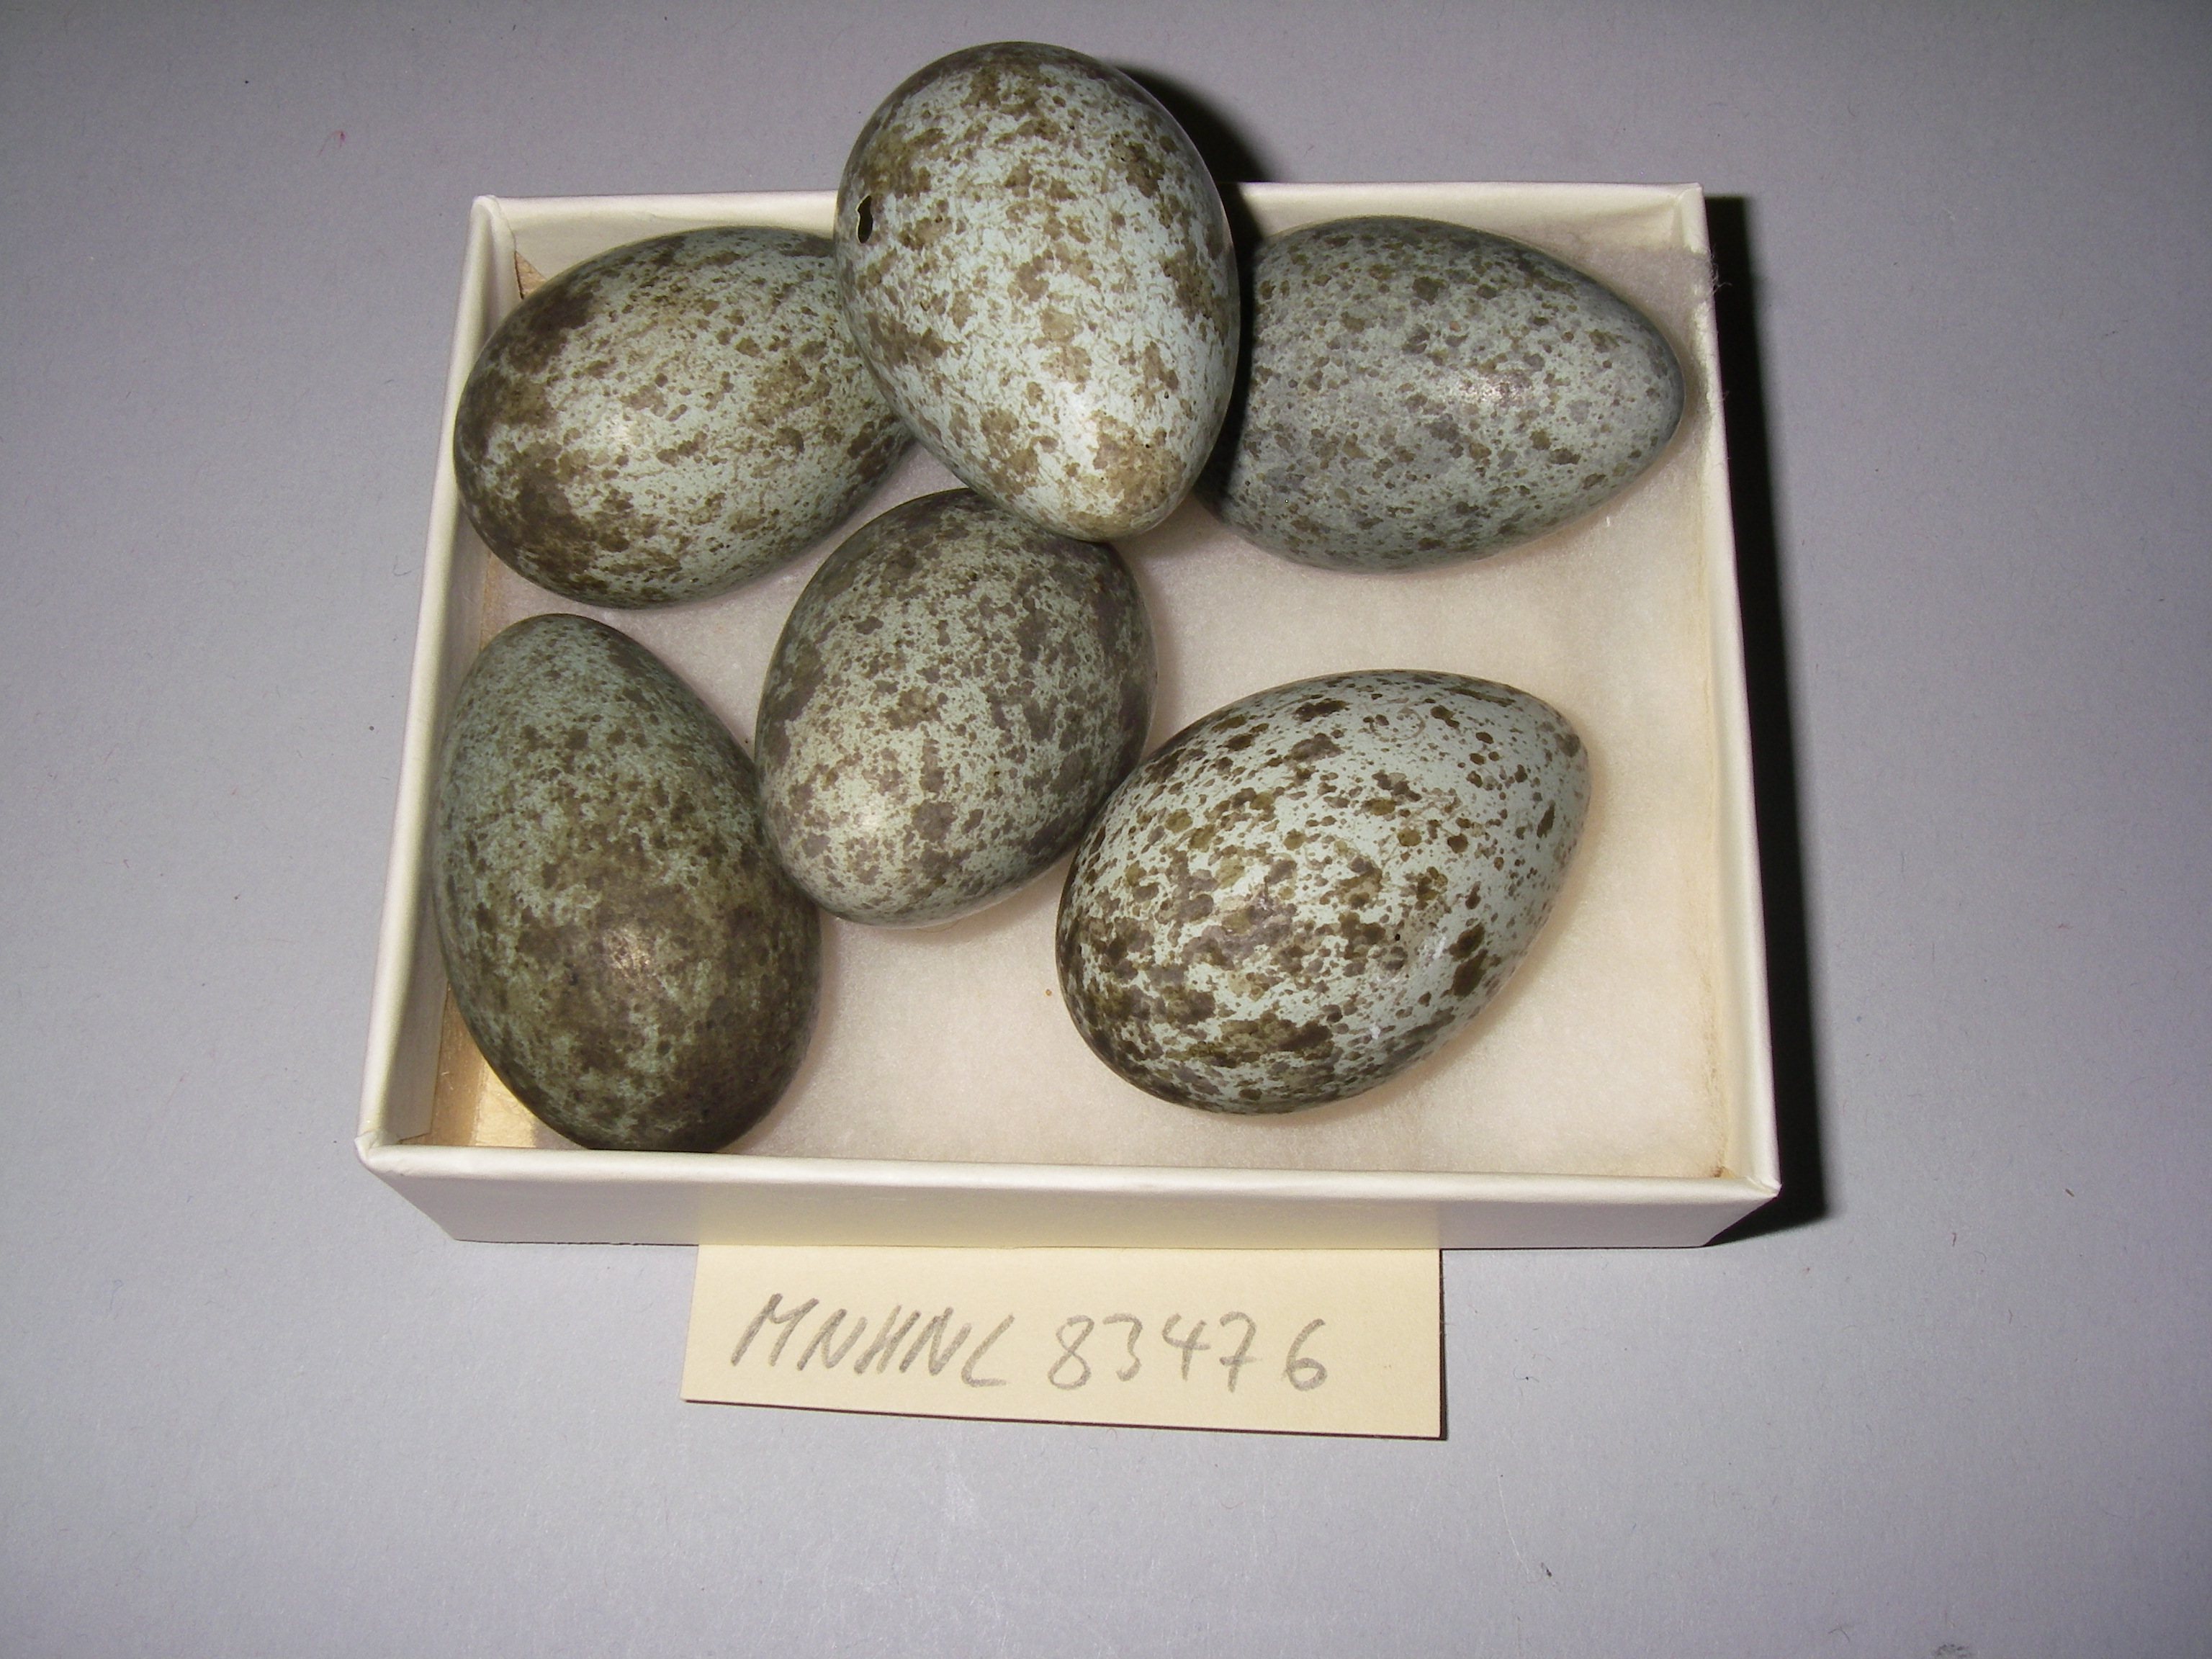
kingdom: Animalia
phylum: Chordata
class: Aves
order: Passeriformes
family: Corvidae
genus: Corvus
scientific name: Corvus corone
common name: Carrion crow
